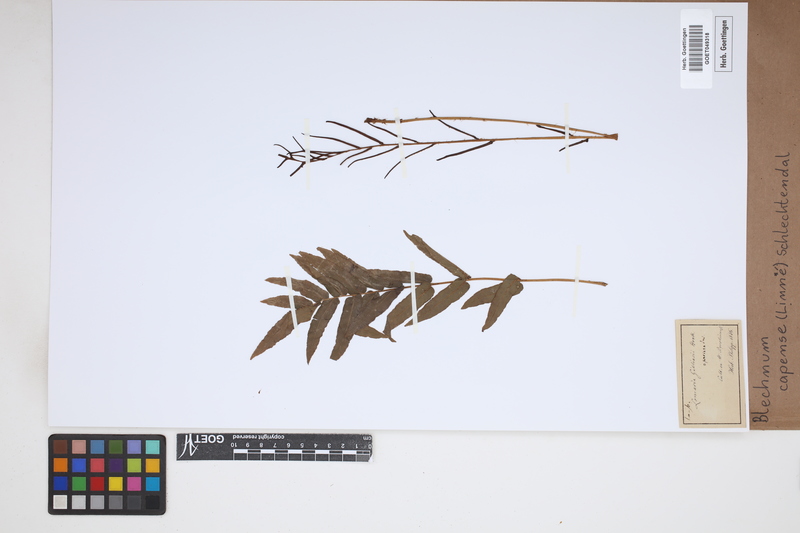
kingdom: Plantae
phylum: Tracheophyta
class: Polypodiopsida
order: Polypodiales
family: Blechnaceae
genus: Parablechnum
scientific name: Parablechnum capense
